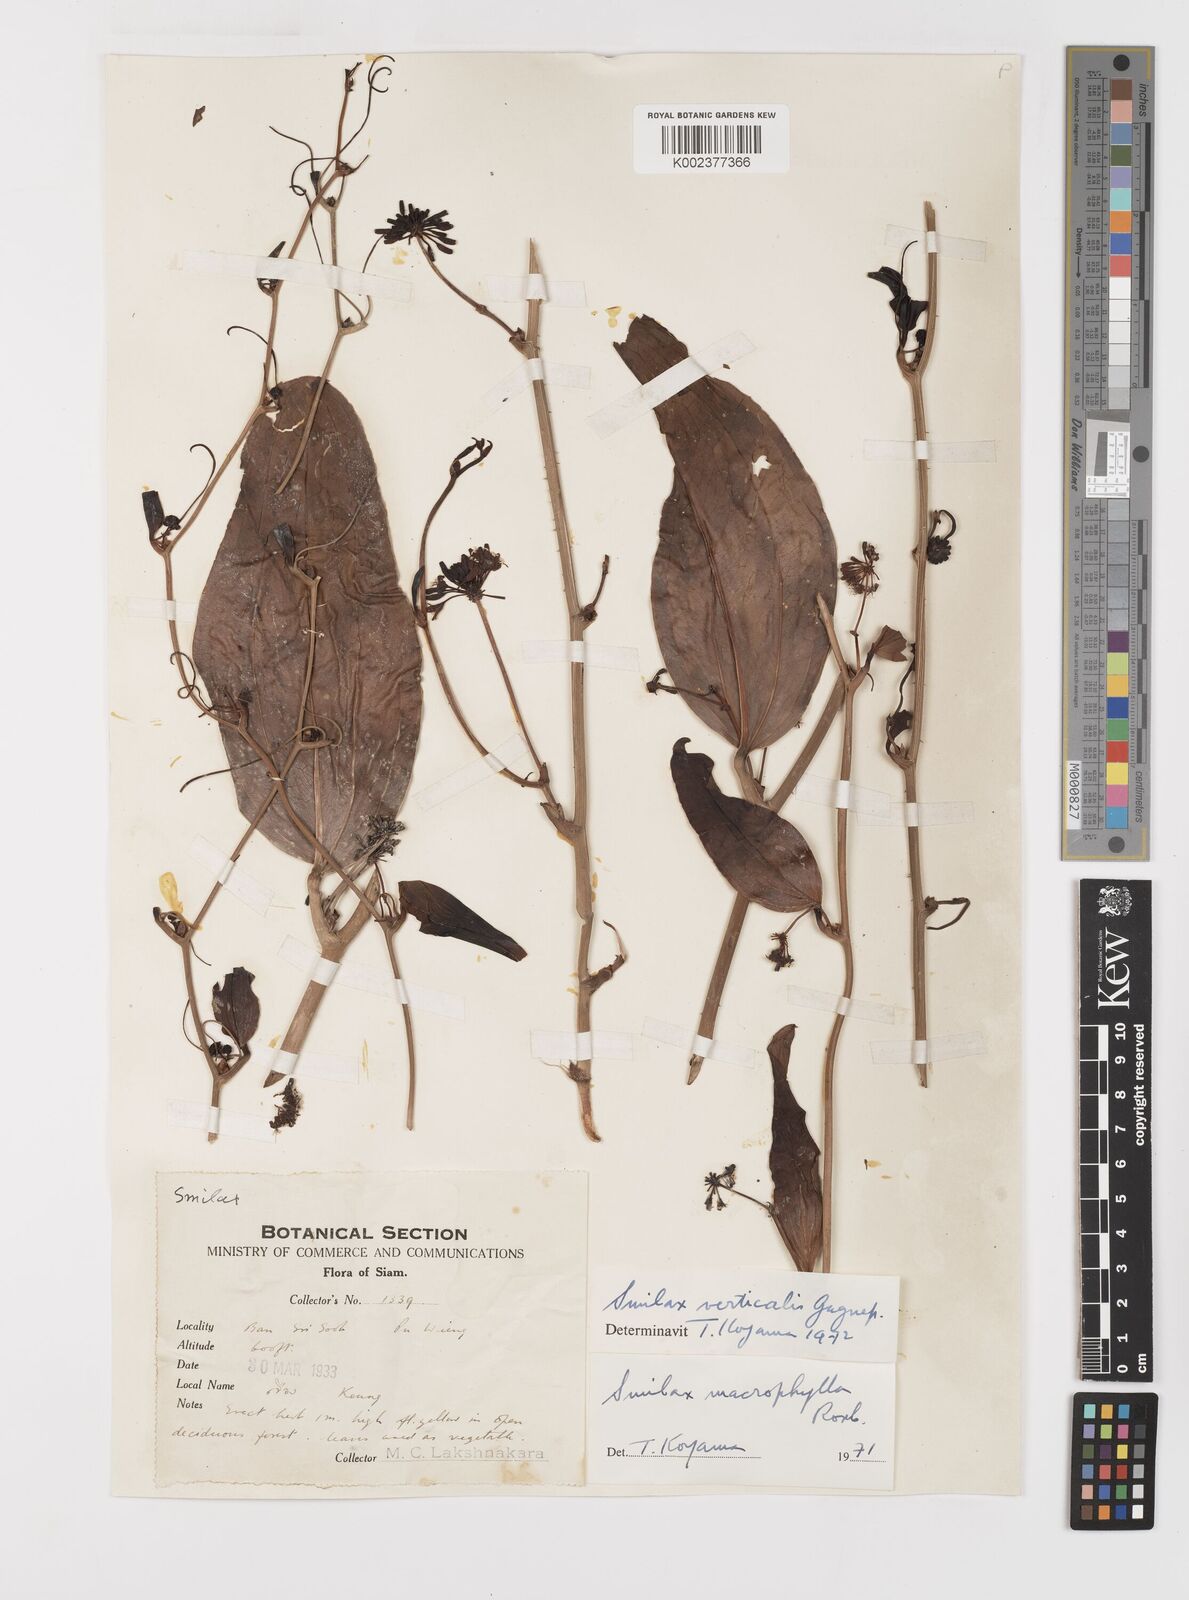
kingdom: Plantae
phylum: Tracheophyta
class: Liliopsida
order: Liliales
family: Smilacaceae
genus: Smilax
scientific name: Smilax verticalis
